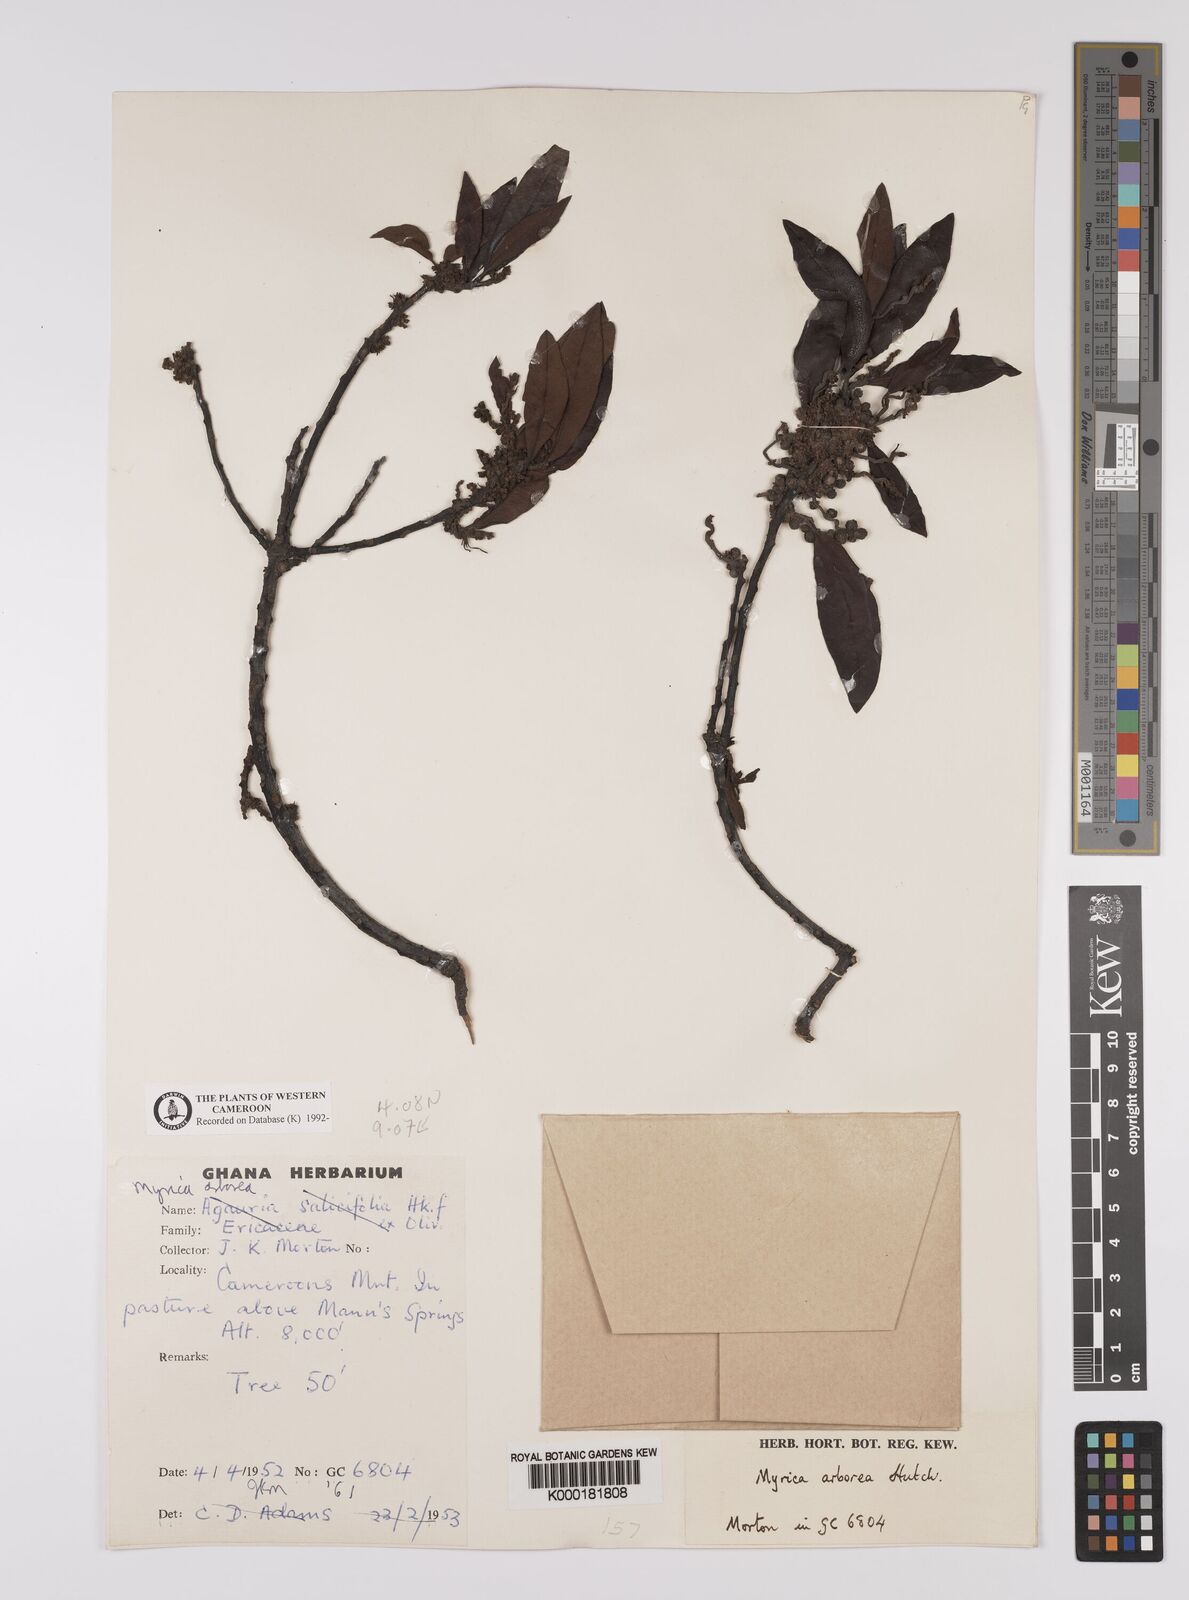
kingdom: Plantae
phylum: Tracheophyta
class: Magnoliopsida
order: Fagales
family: Myricaceae
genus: Morella
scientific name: Morella arborea
